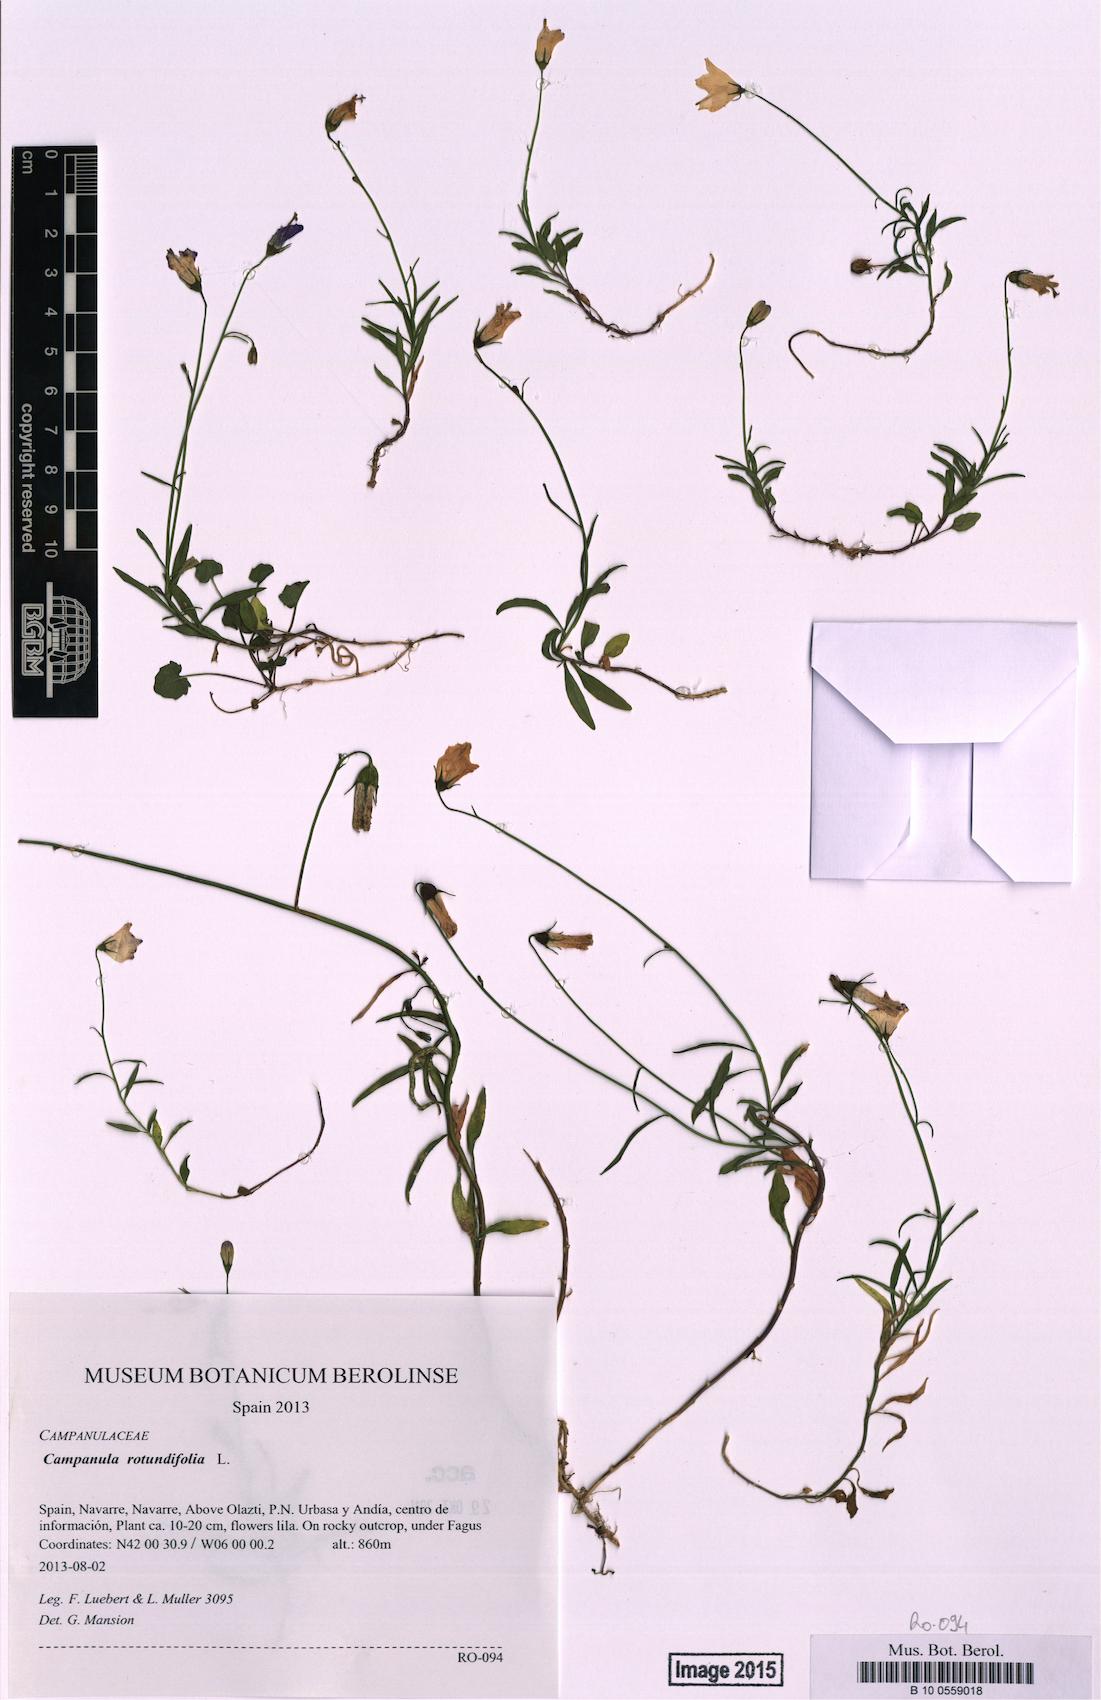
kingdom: Plantae
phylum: Tracheophyta
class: Magnoliopsida
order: Asterales
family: Campanulaceae
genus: Campanula
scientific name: Campanula rotundifolia
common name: Harebell
